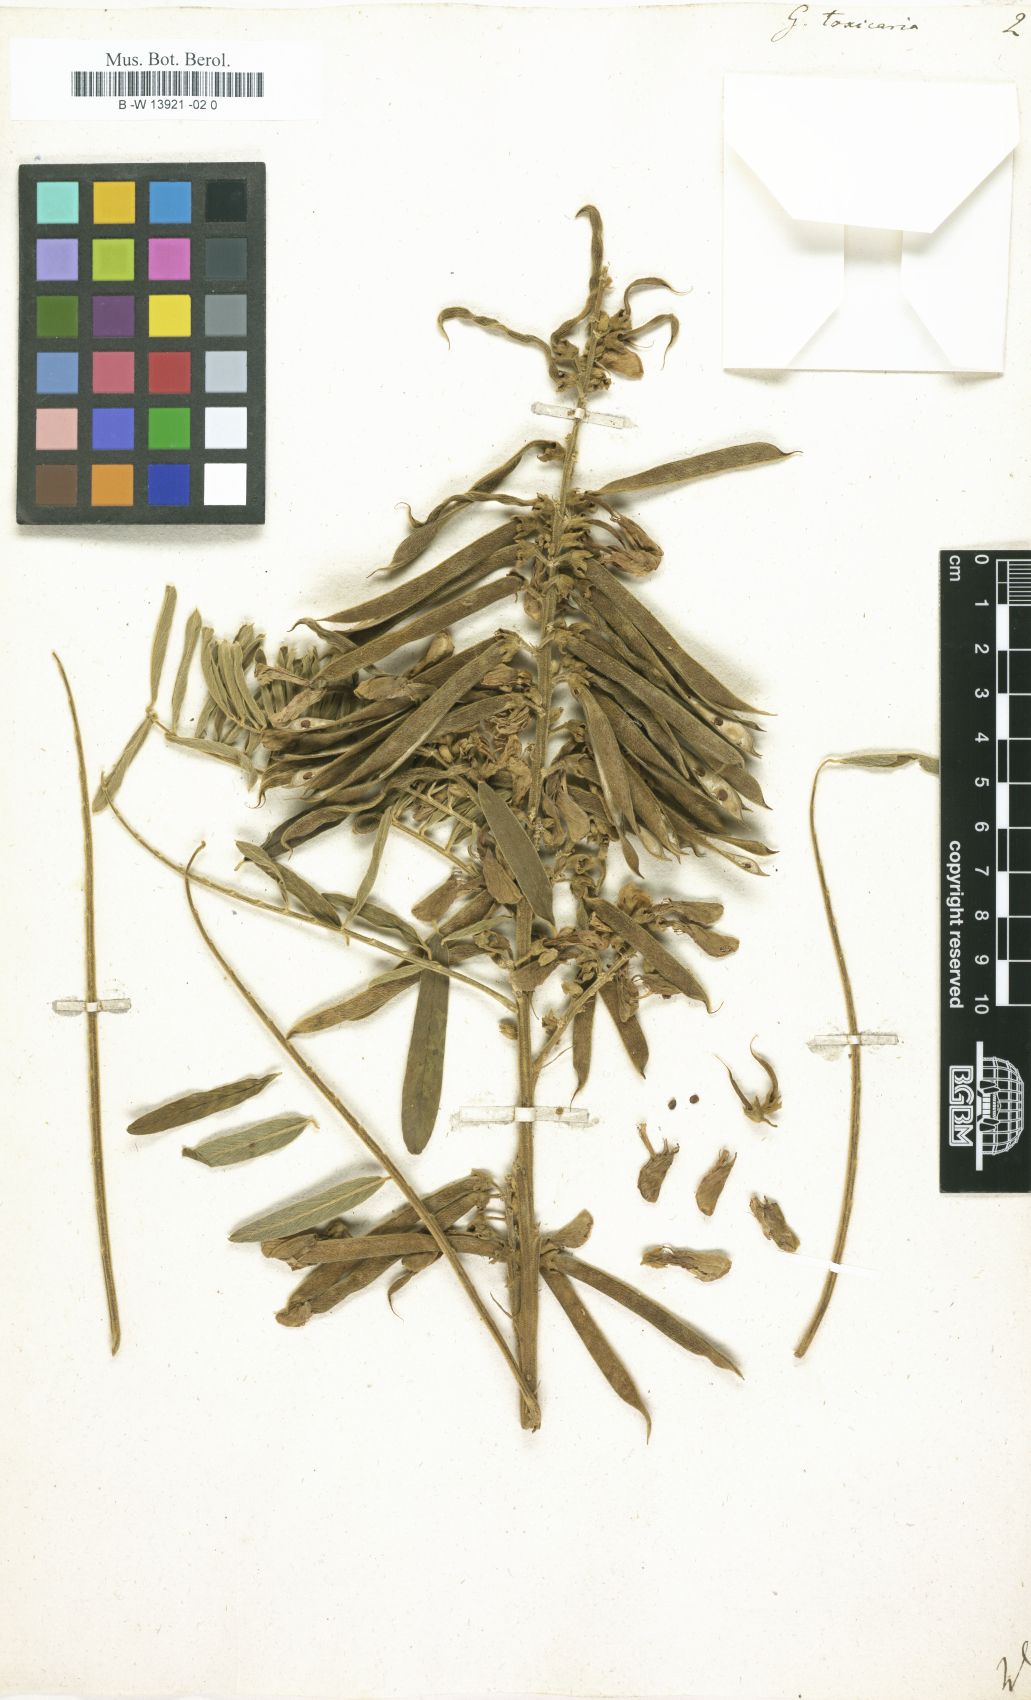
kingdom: Plantae
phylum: Tracheophyta
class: Magnoliopsida
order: Fabales
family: Fabaceae
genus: Tephrosia
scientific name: Tephrosia sinapou
